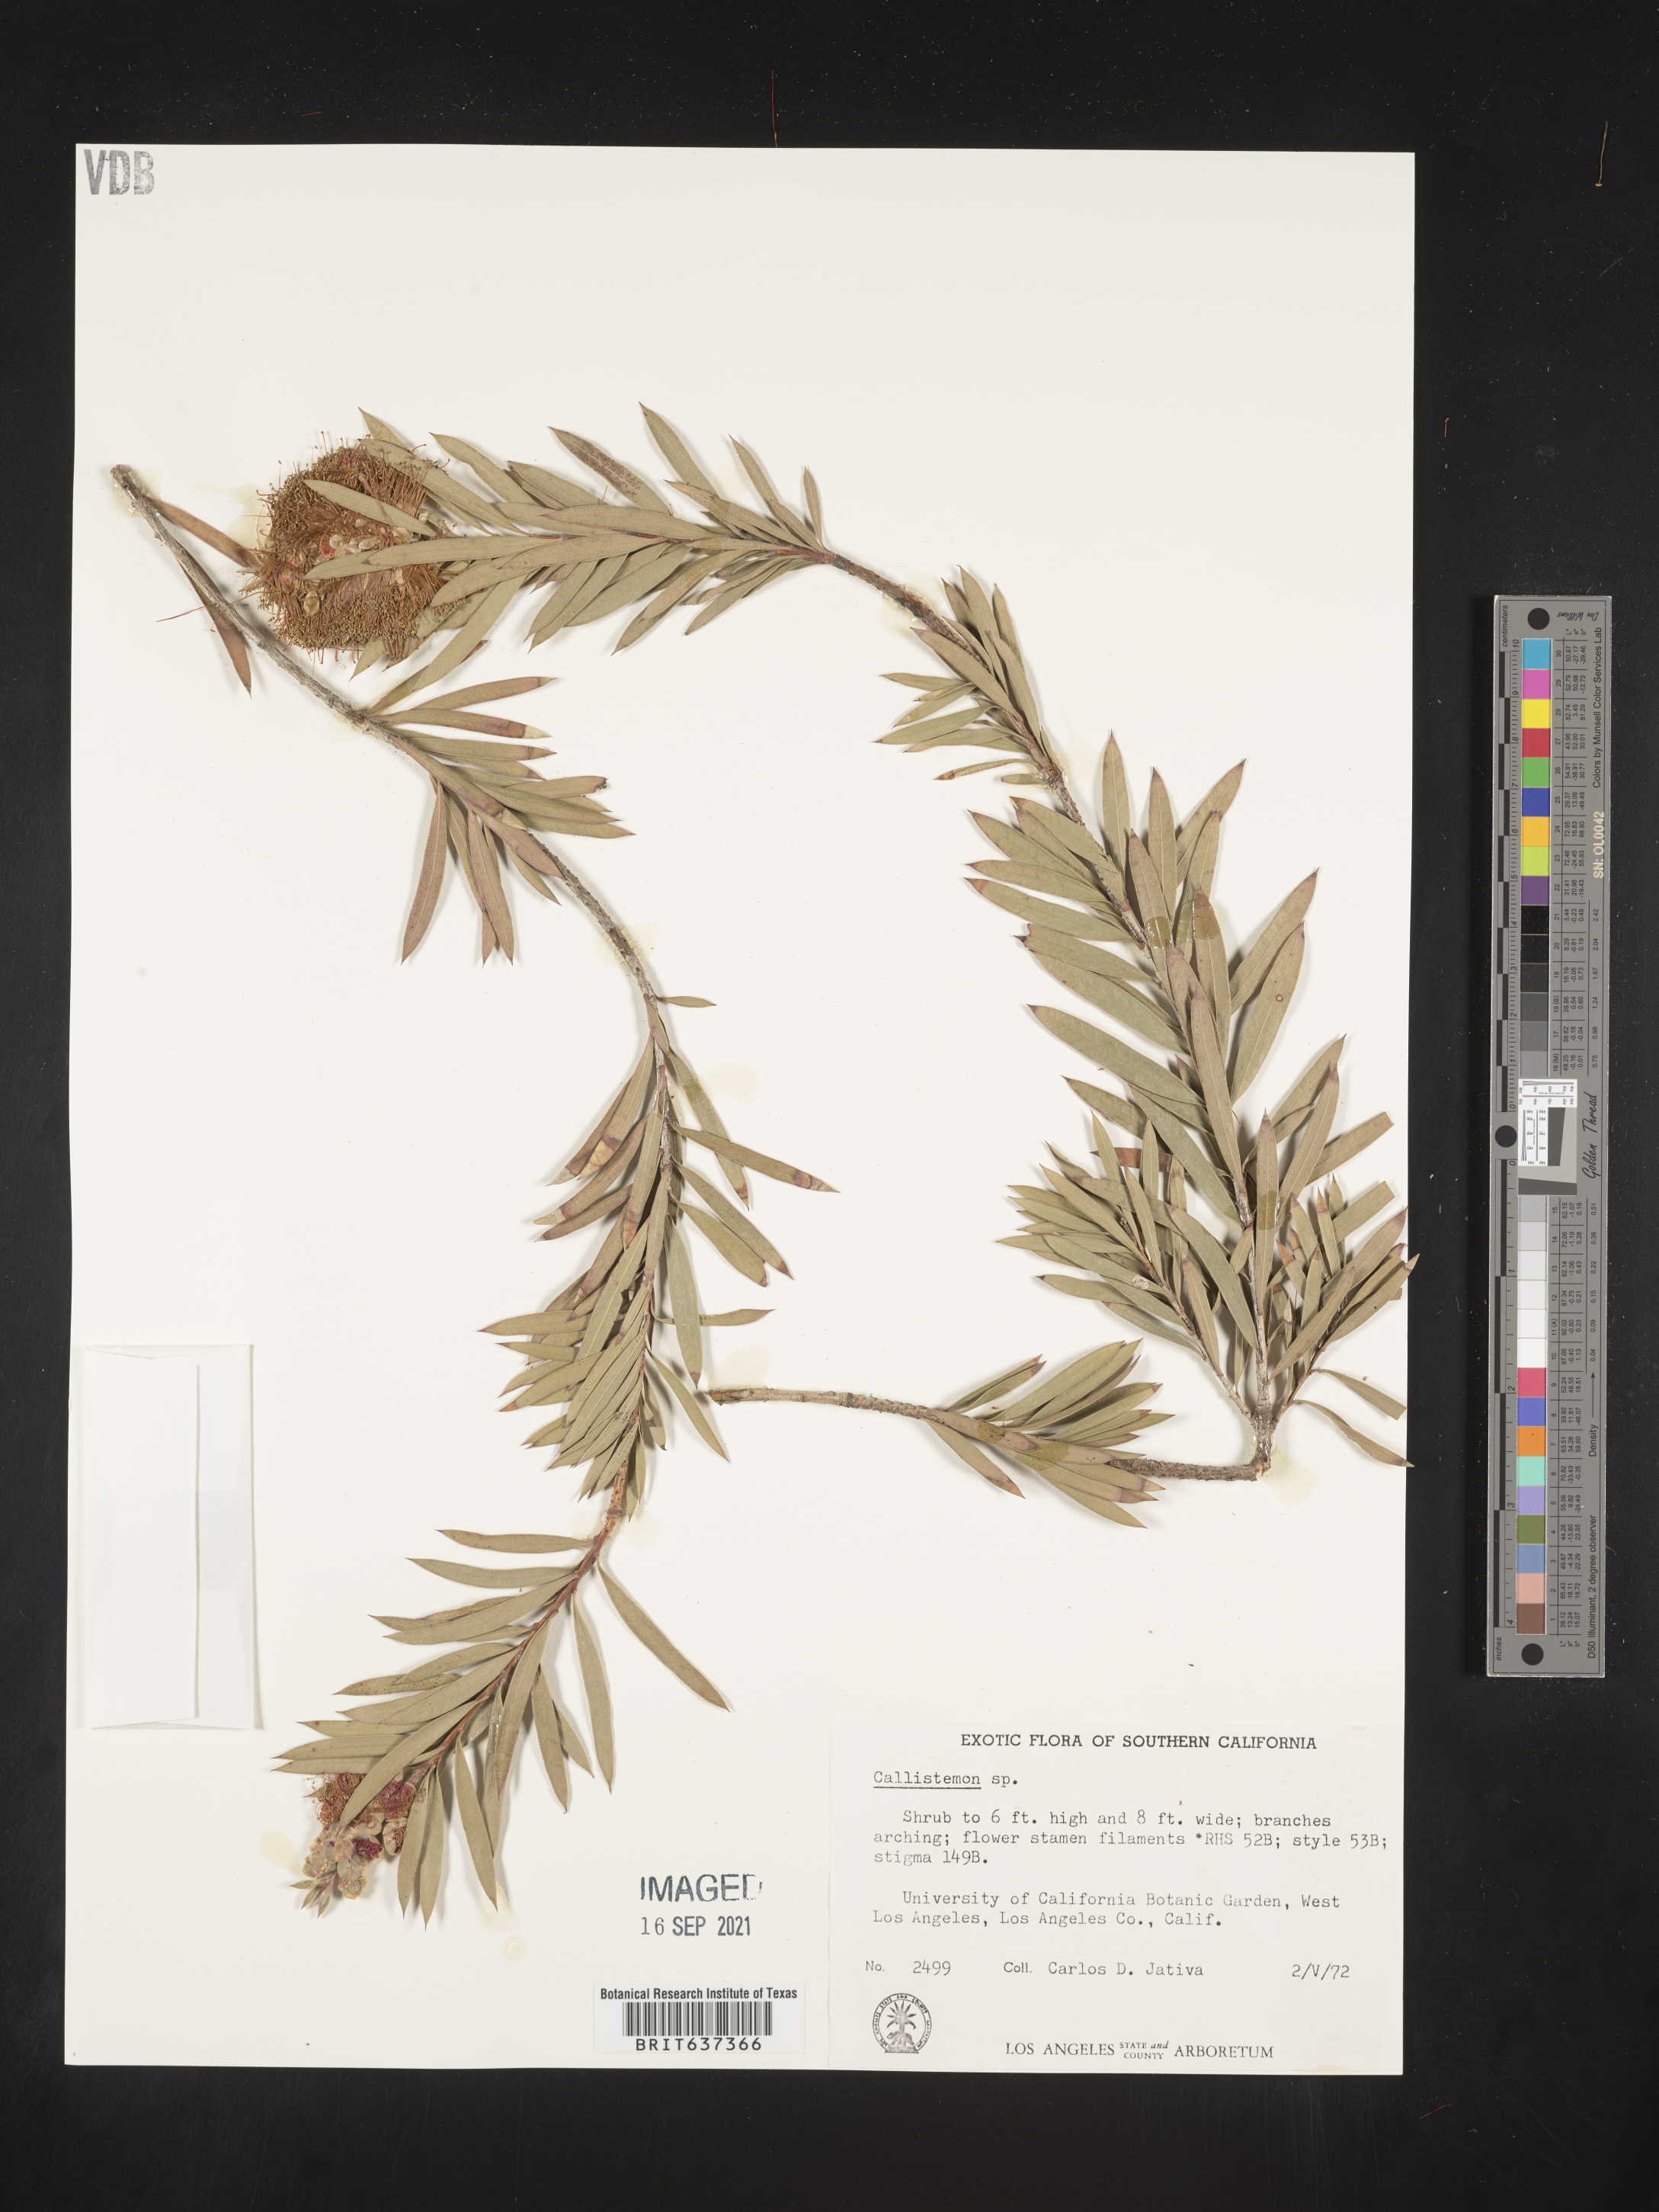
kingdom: Plantae
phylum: Tracheophyta
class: Magnoliopsida
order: Myrtales
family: Myrtaceae
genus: Callistemon
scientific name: Callistemon
